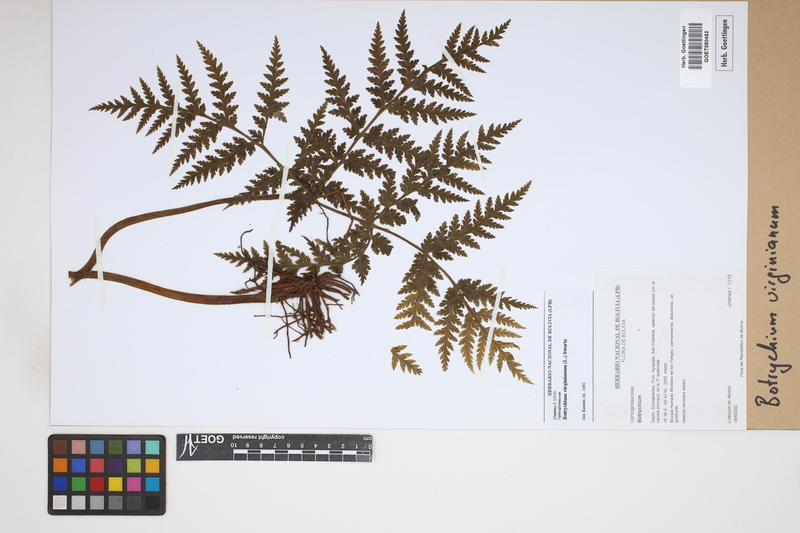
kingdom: Plantae
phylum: Tracheophyta
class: Polypodiopsida
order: Ophioglossales
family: Ophioglossaceae
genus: Botrychium
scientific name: Botrychium virginianum
